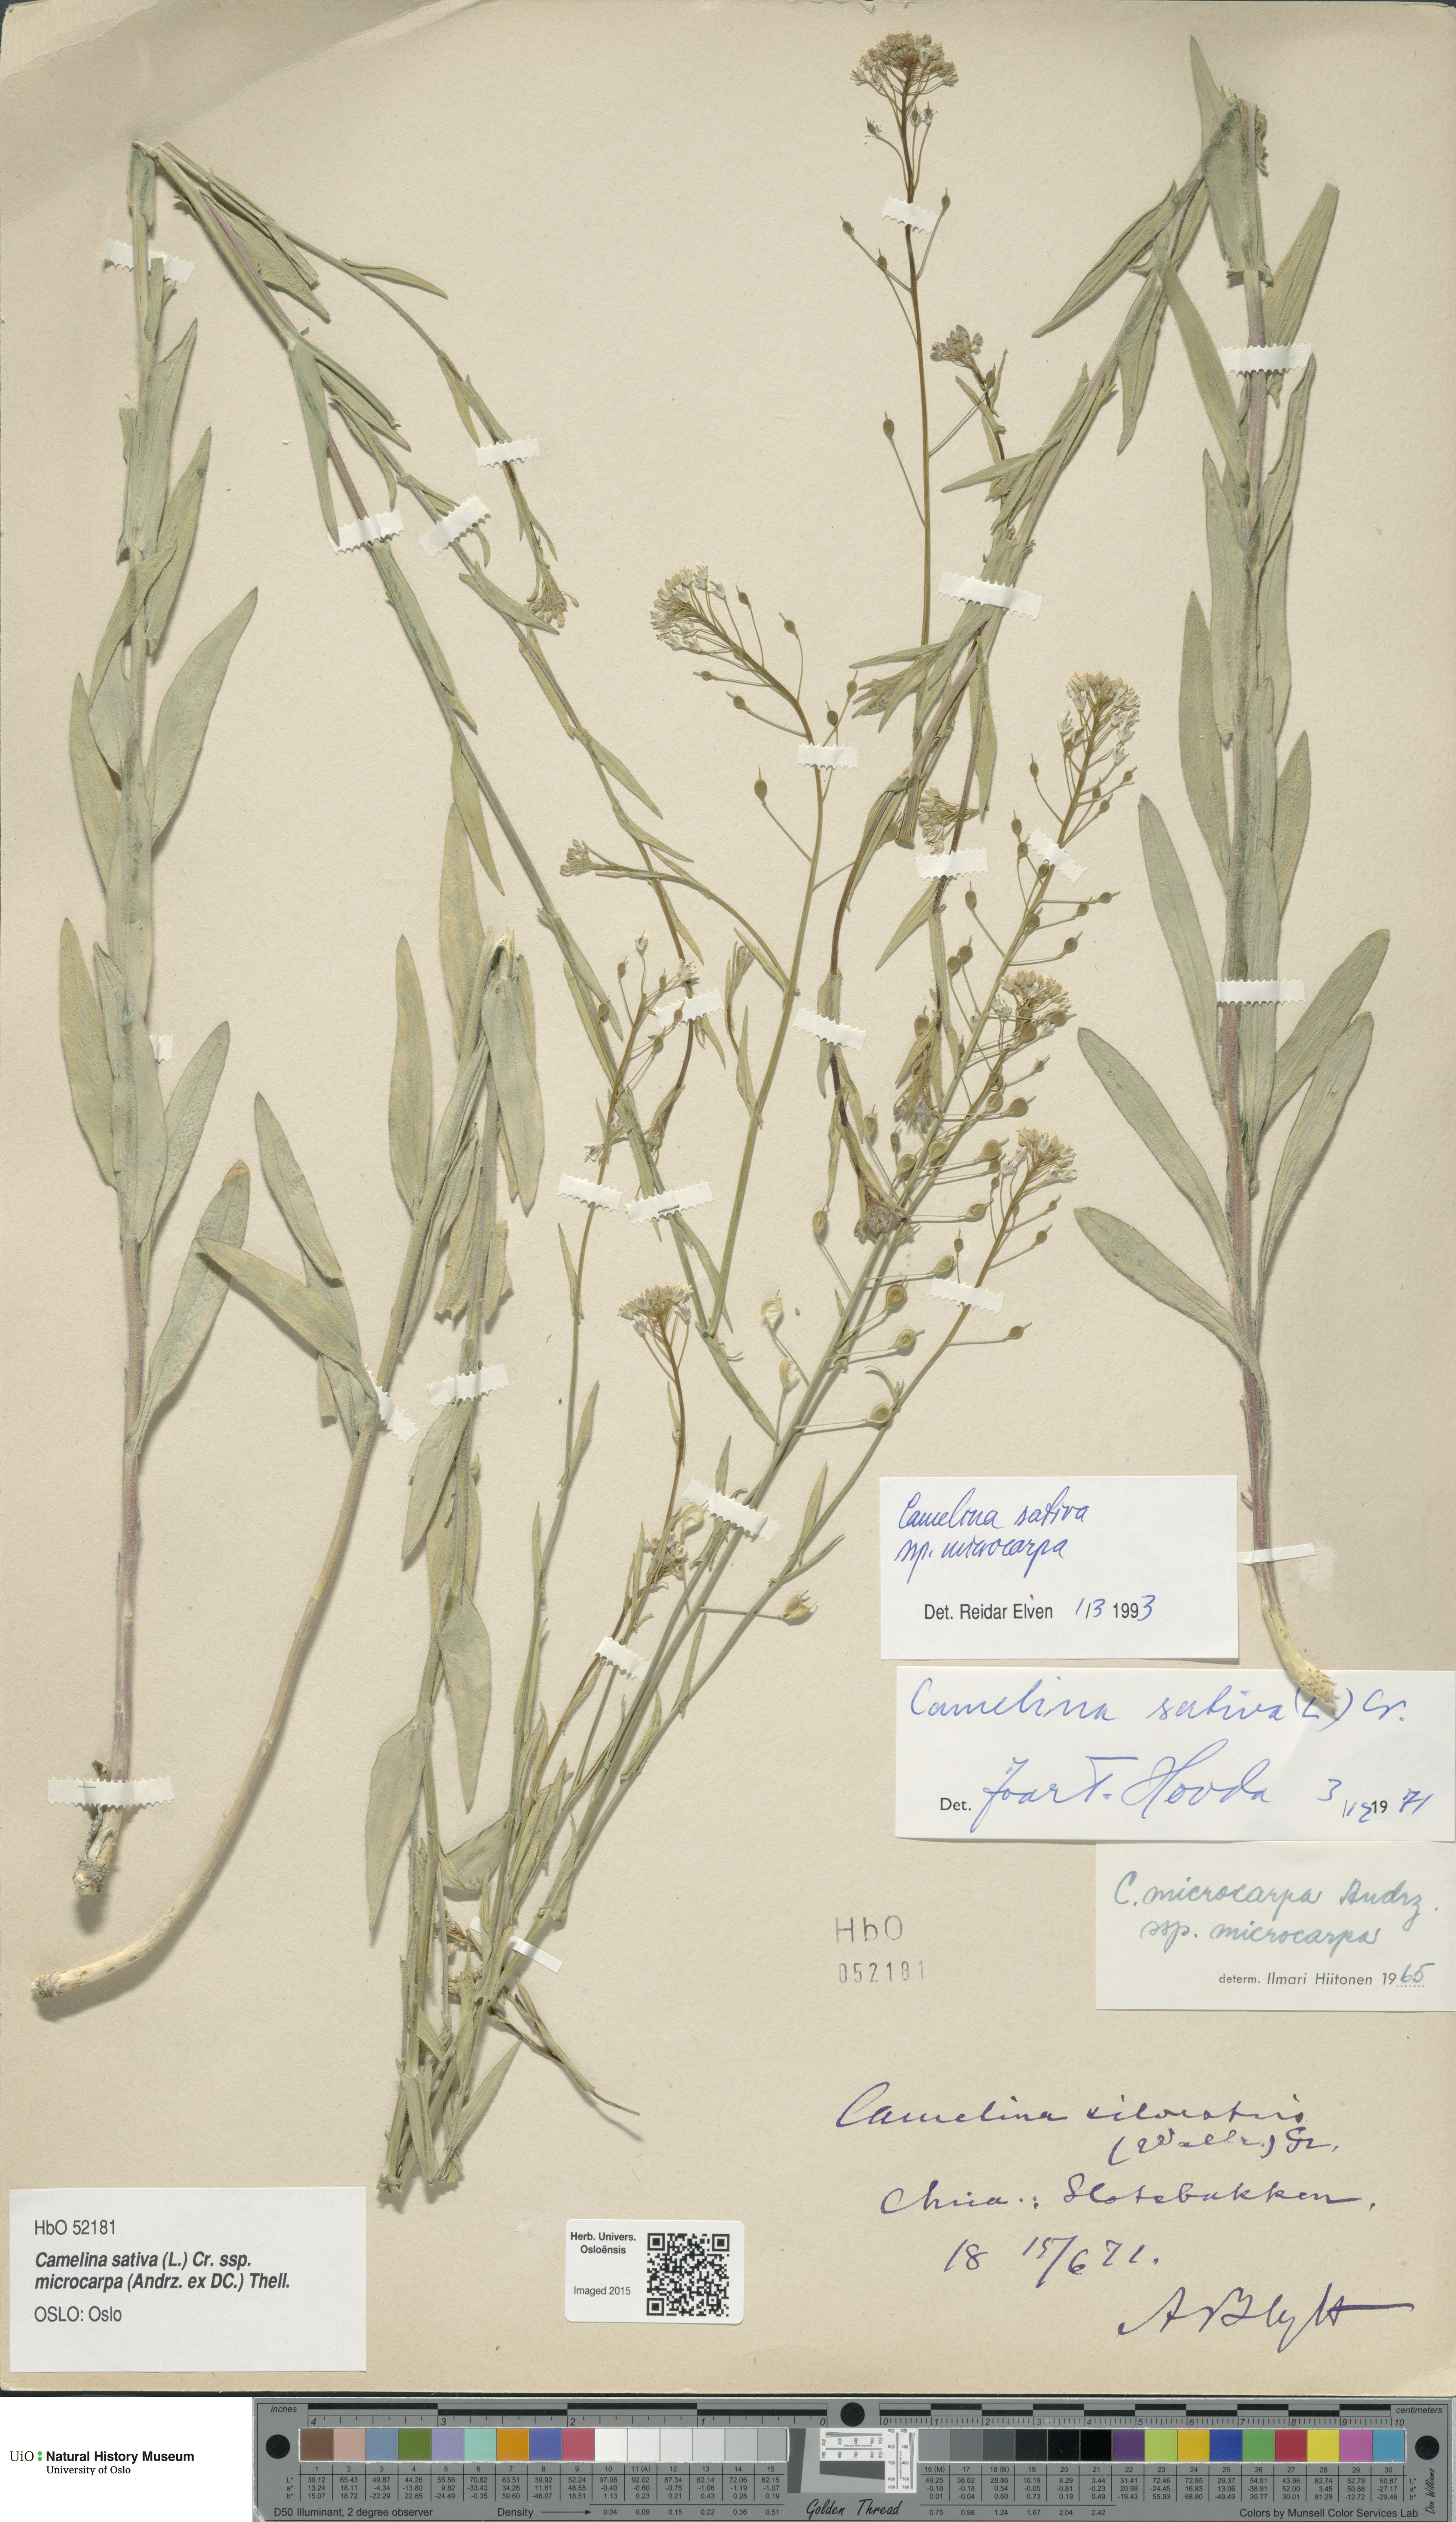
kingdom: Plantae
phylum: Tracheophyta
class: Magnoliopsida
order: Brassicales
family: Brassicaceae
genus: Camelina
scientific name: Camelina sativa
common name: Gold-of-pleasure
